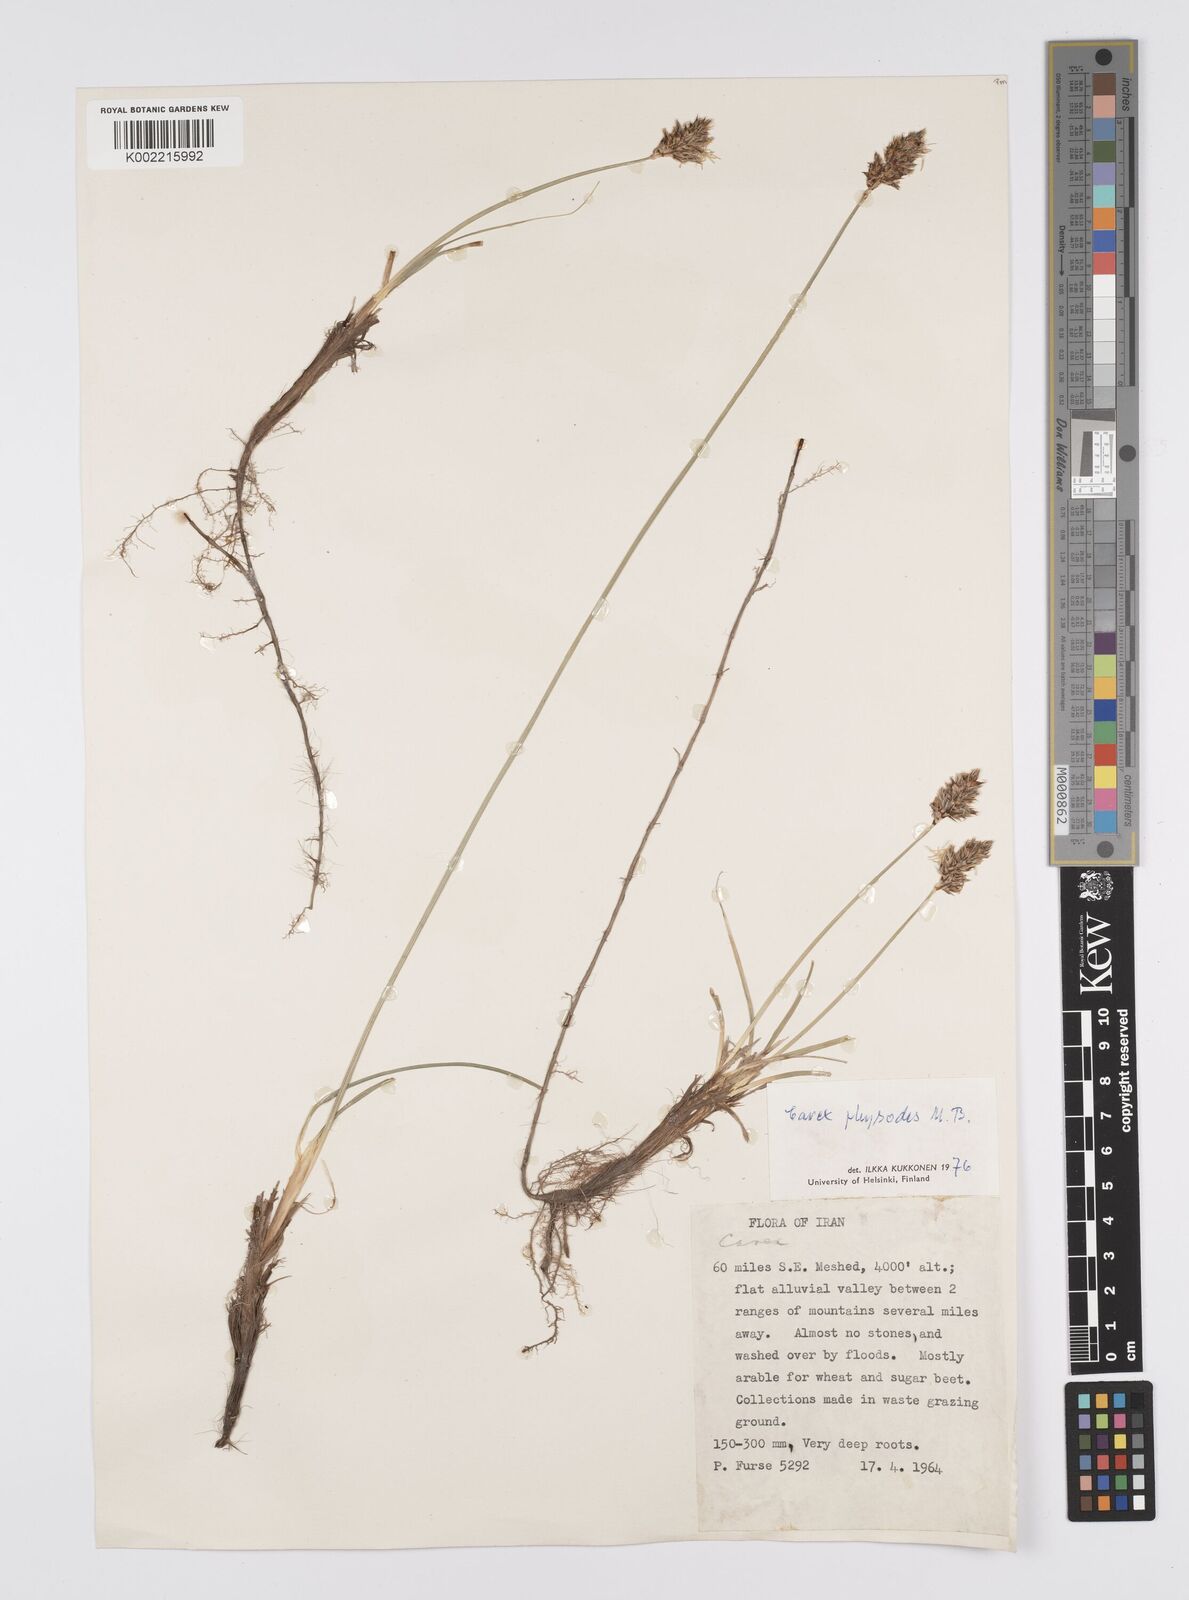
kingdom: Plantae
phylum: Tracheophyta
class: Liliopsida
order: Poales
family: Cyperaceae
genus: Carex
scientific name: Carex physodes
